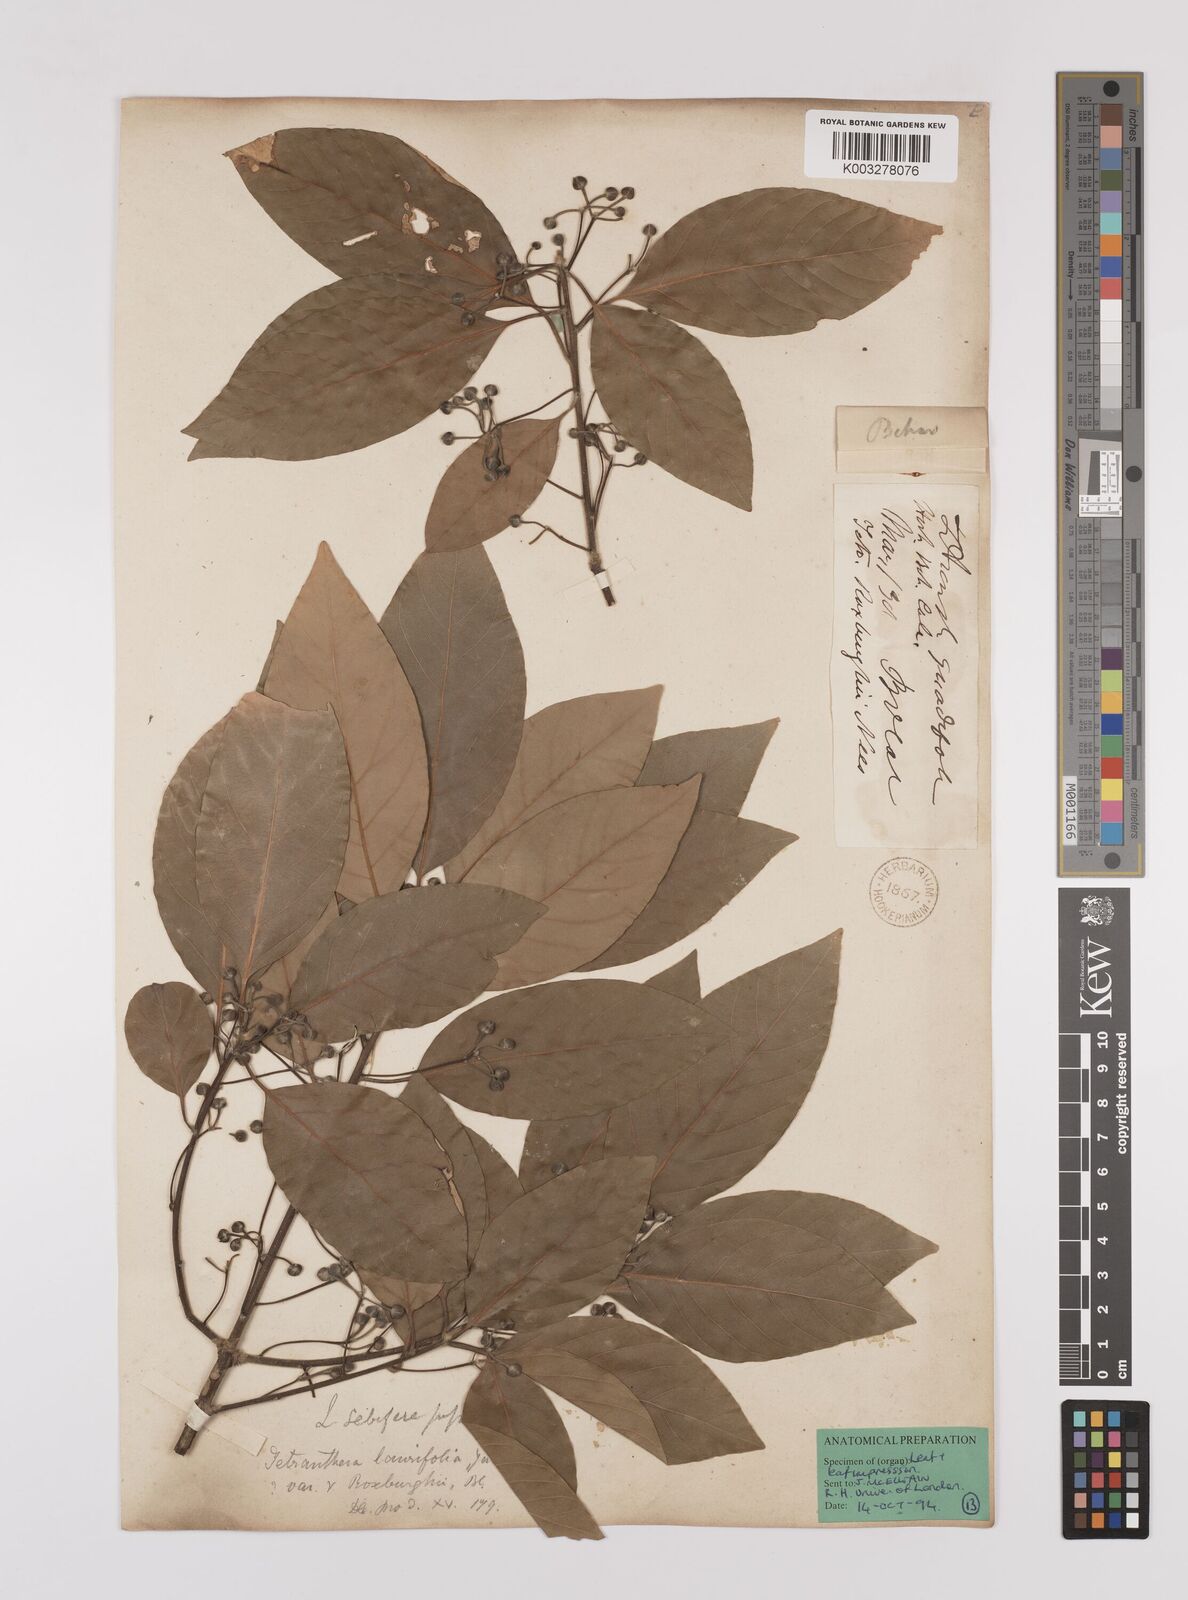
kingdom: Plantae
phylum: Tracheophyta
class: Magnoliopsida
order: Laurales
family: Lauraceae
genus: Litsea
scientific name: Litsea glutinosa
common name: Indian-laurel
